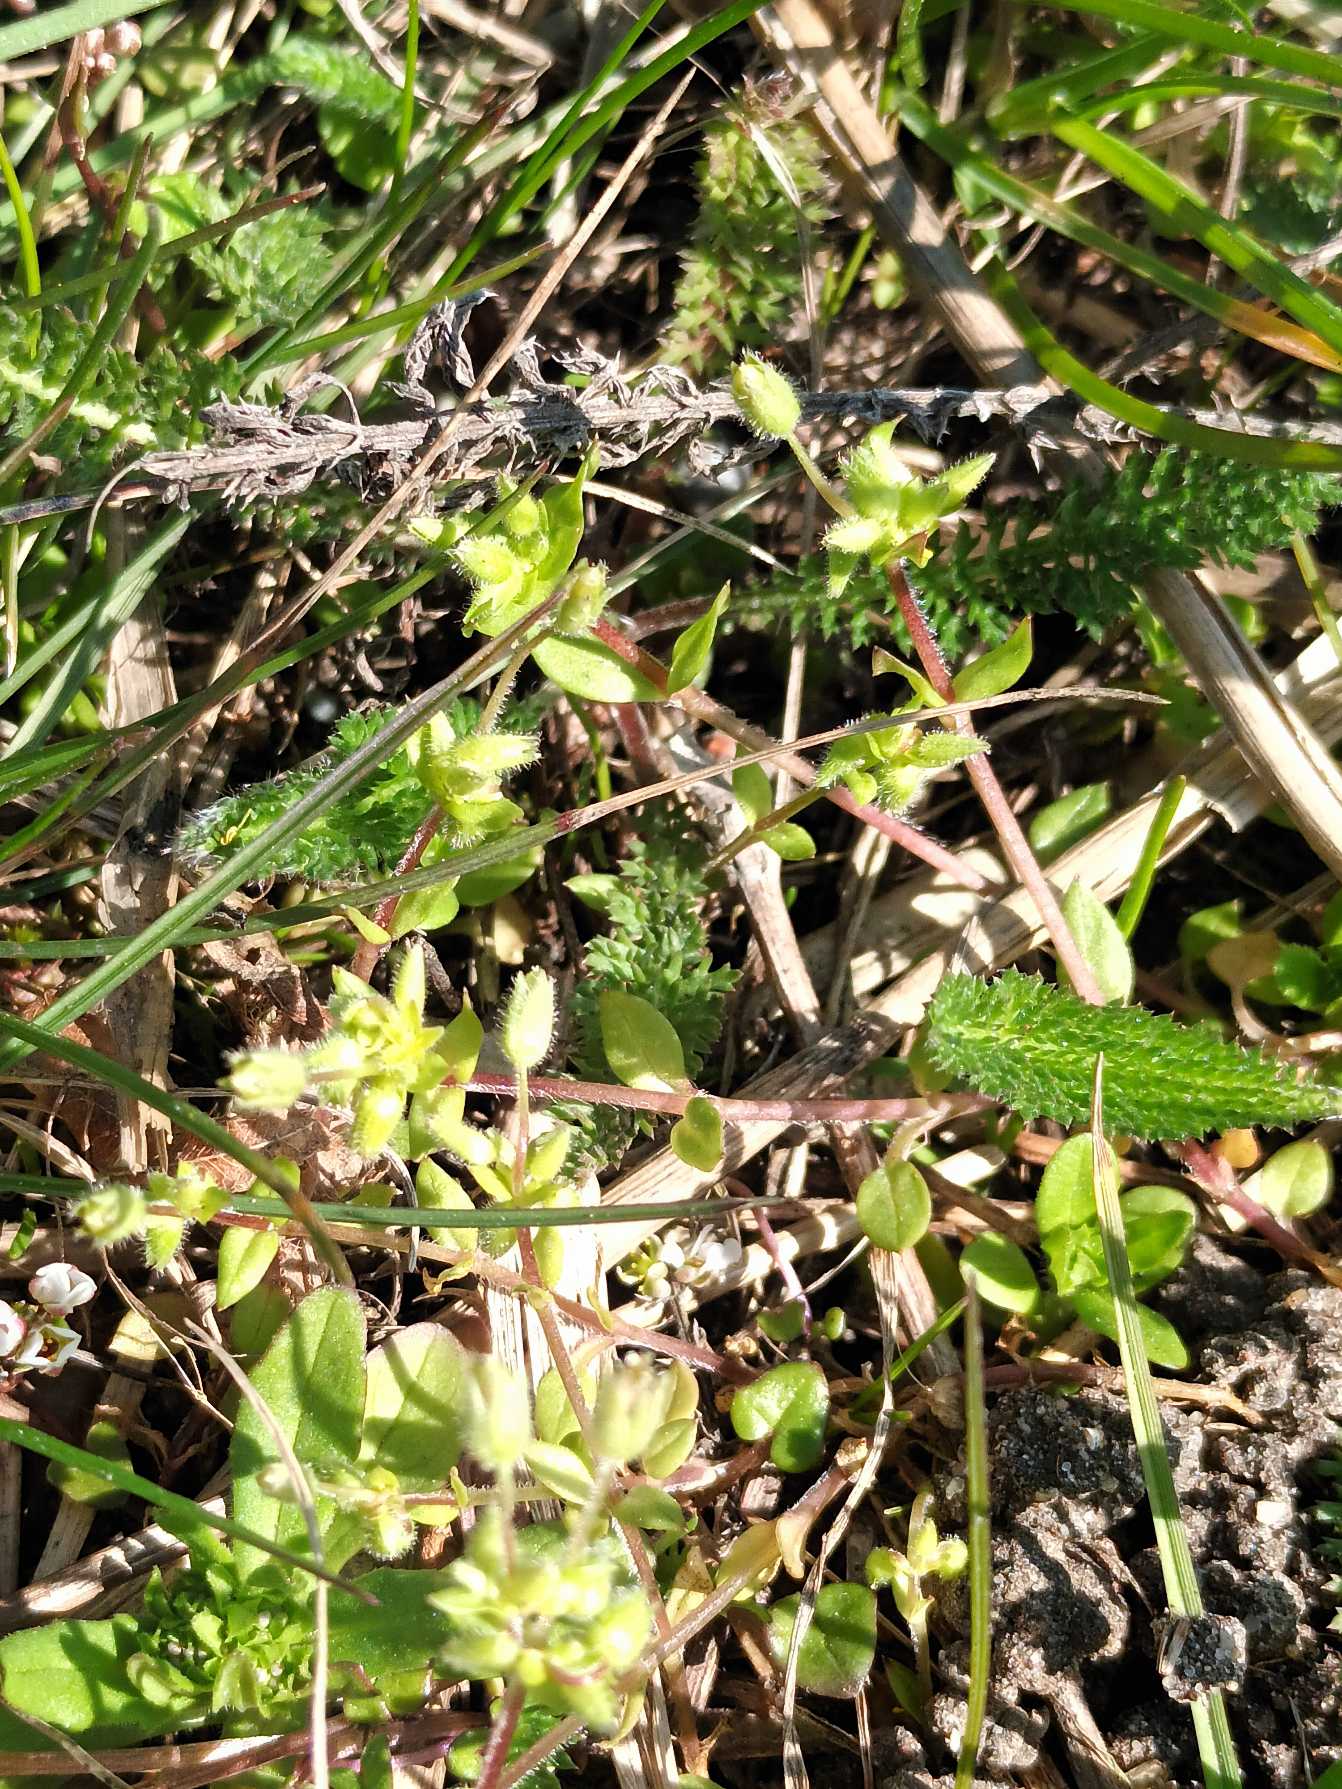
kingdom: Plantae
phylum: Tracheophyta
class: Magnoliopsida
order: Caryophyllales
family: Caryophyllaceae
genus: Stellaria
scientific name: Stellaria apetala
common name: Bleg fuglegræs
